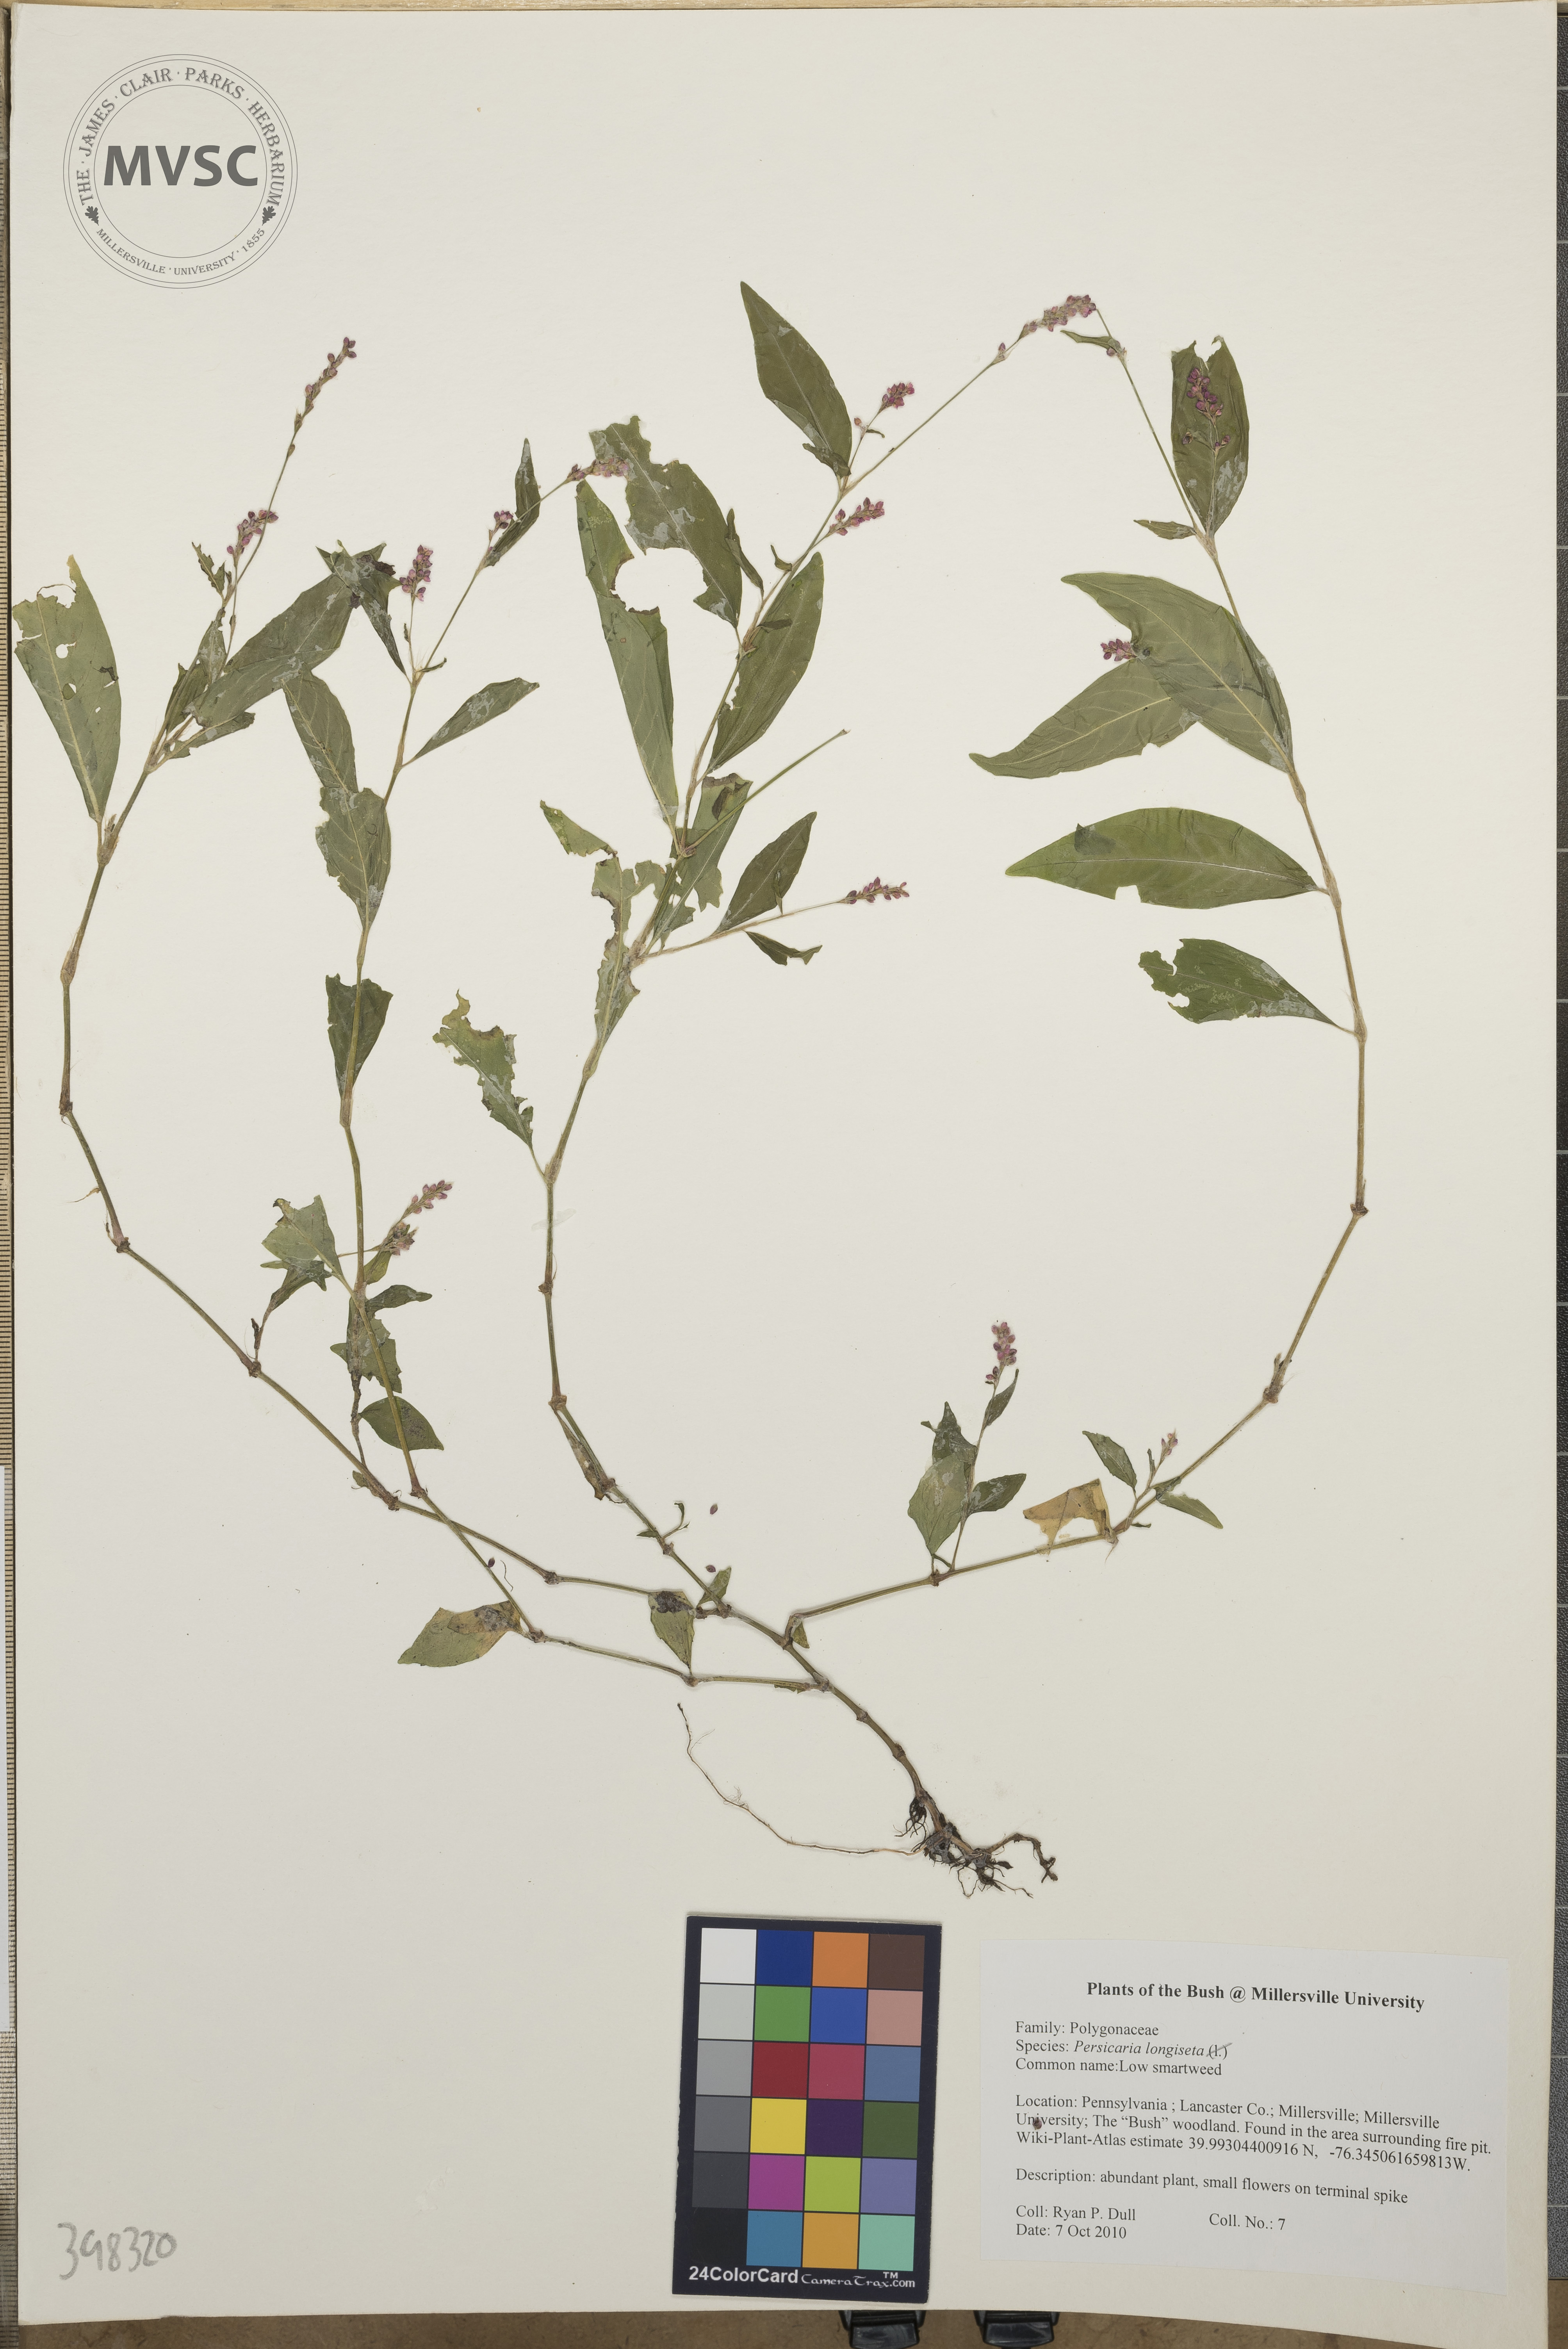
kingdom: Plantae
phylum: Tracheophyta
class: Magnoliopsida
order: Caryophyllales
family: Polygonaceae
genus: Persicaria
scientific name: Persicaria longiseta
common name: Low smartweed
